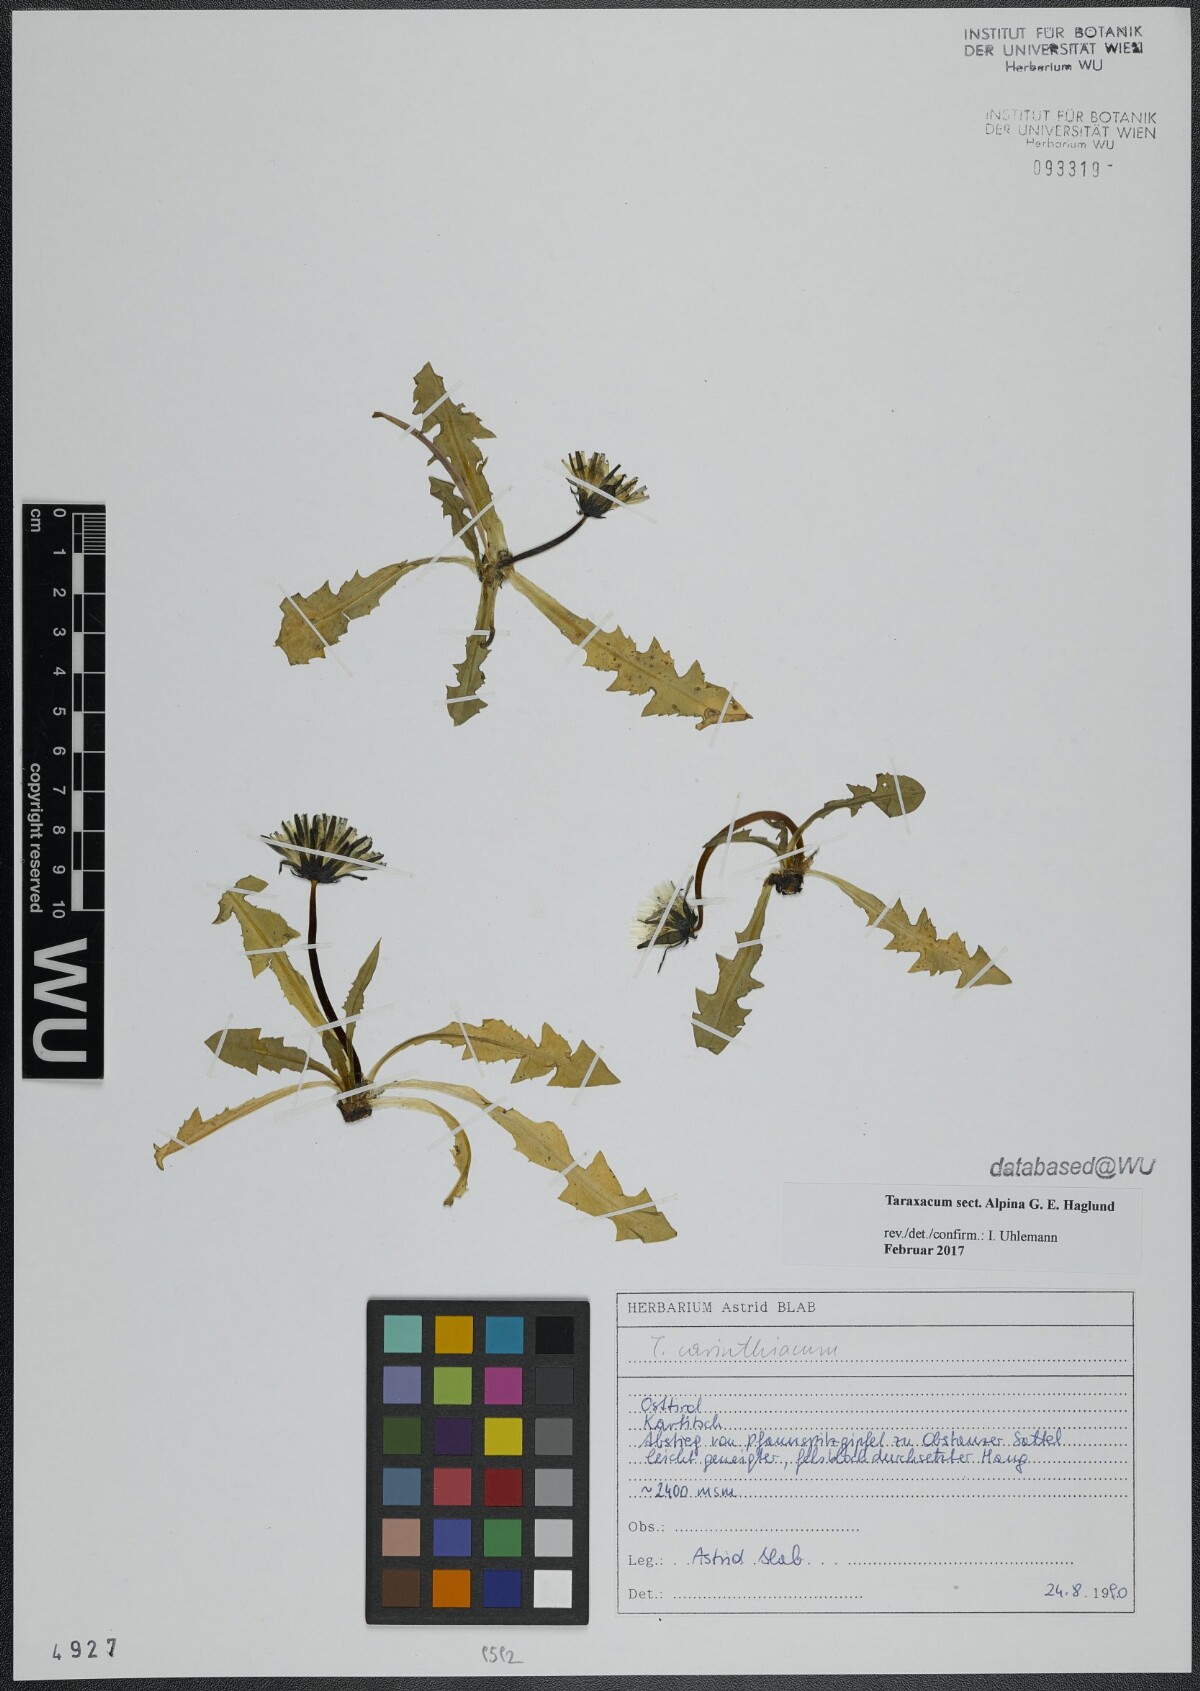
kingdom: Plantae
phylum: Tracheophyta
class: Magnoliopsida
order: Asterales
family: Asteraceae
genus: Taraxacum
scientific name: Taraxacum
